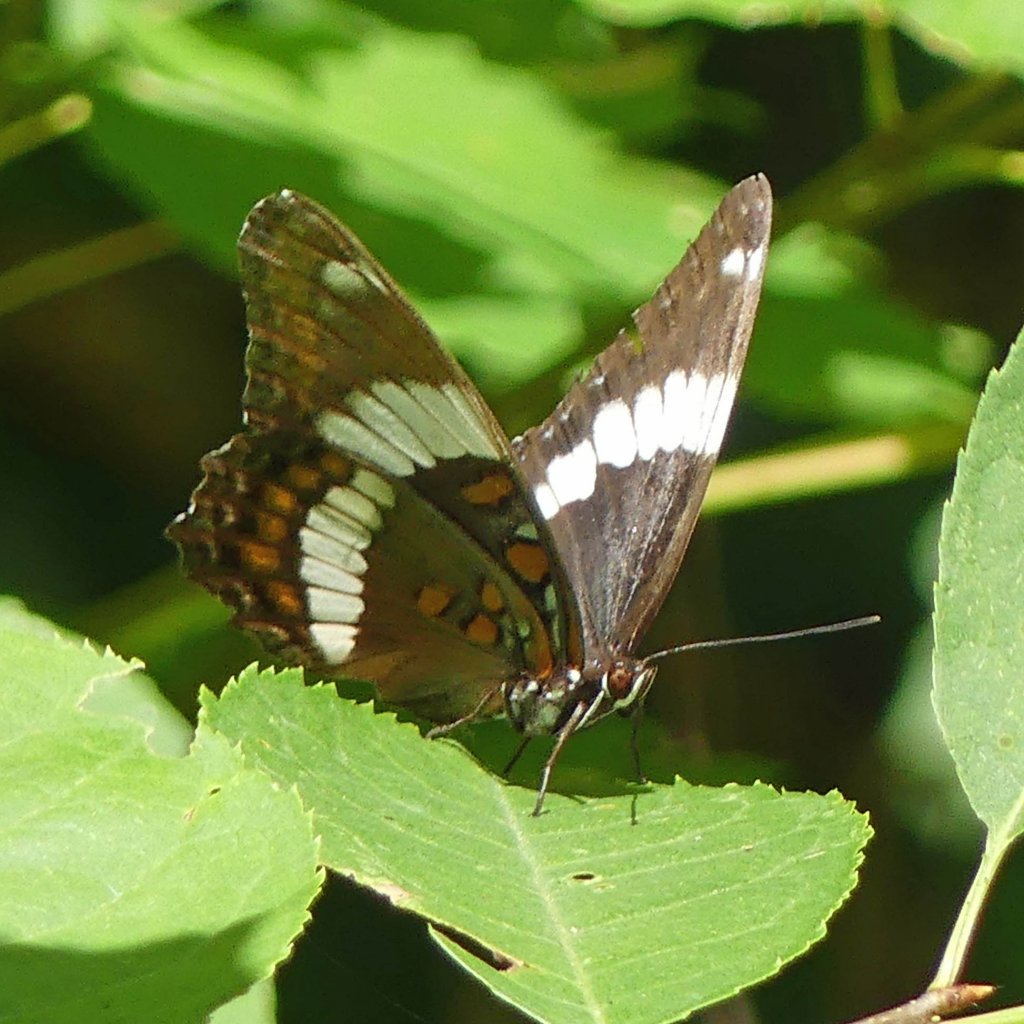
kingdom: Animalia
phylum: Arthropoda
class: Insecta
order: Lepidoptera
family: Nymphalidae
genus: Limenitis
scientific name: Limenitis arthemis
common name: Red-spotted Admiral
